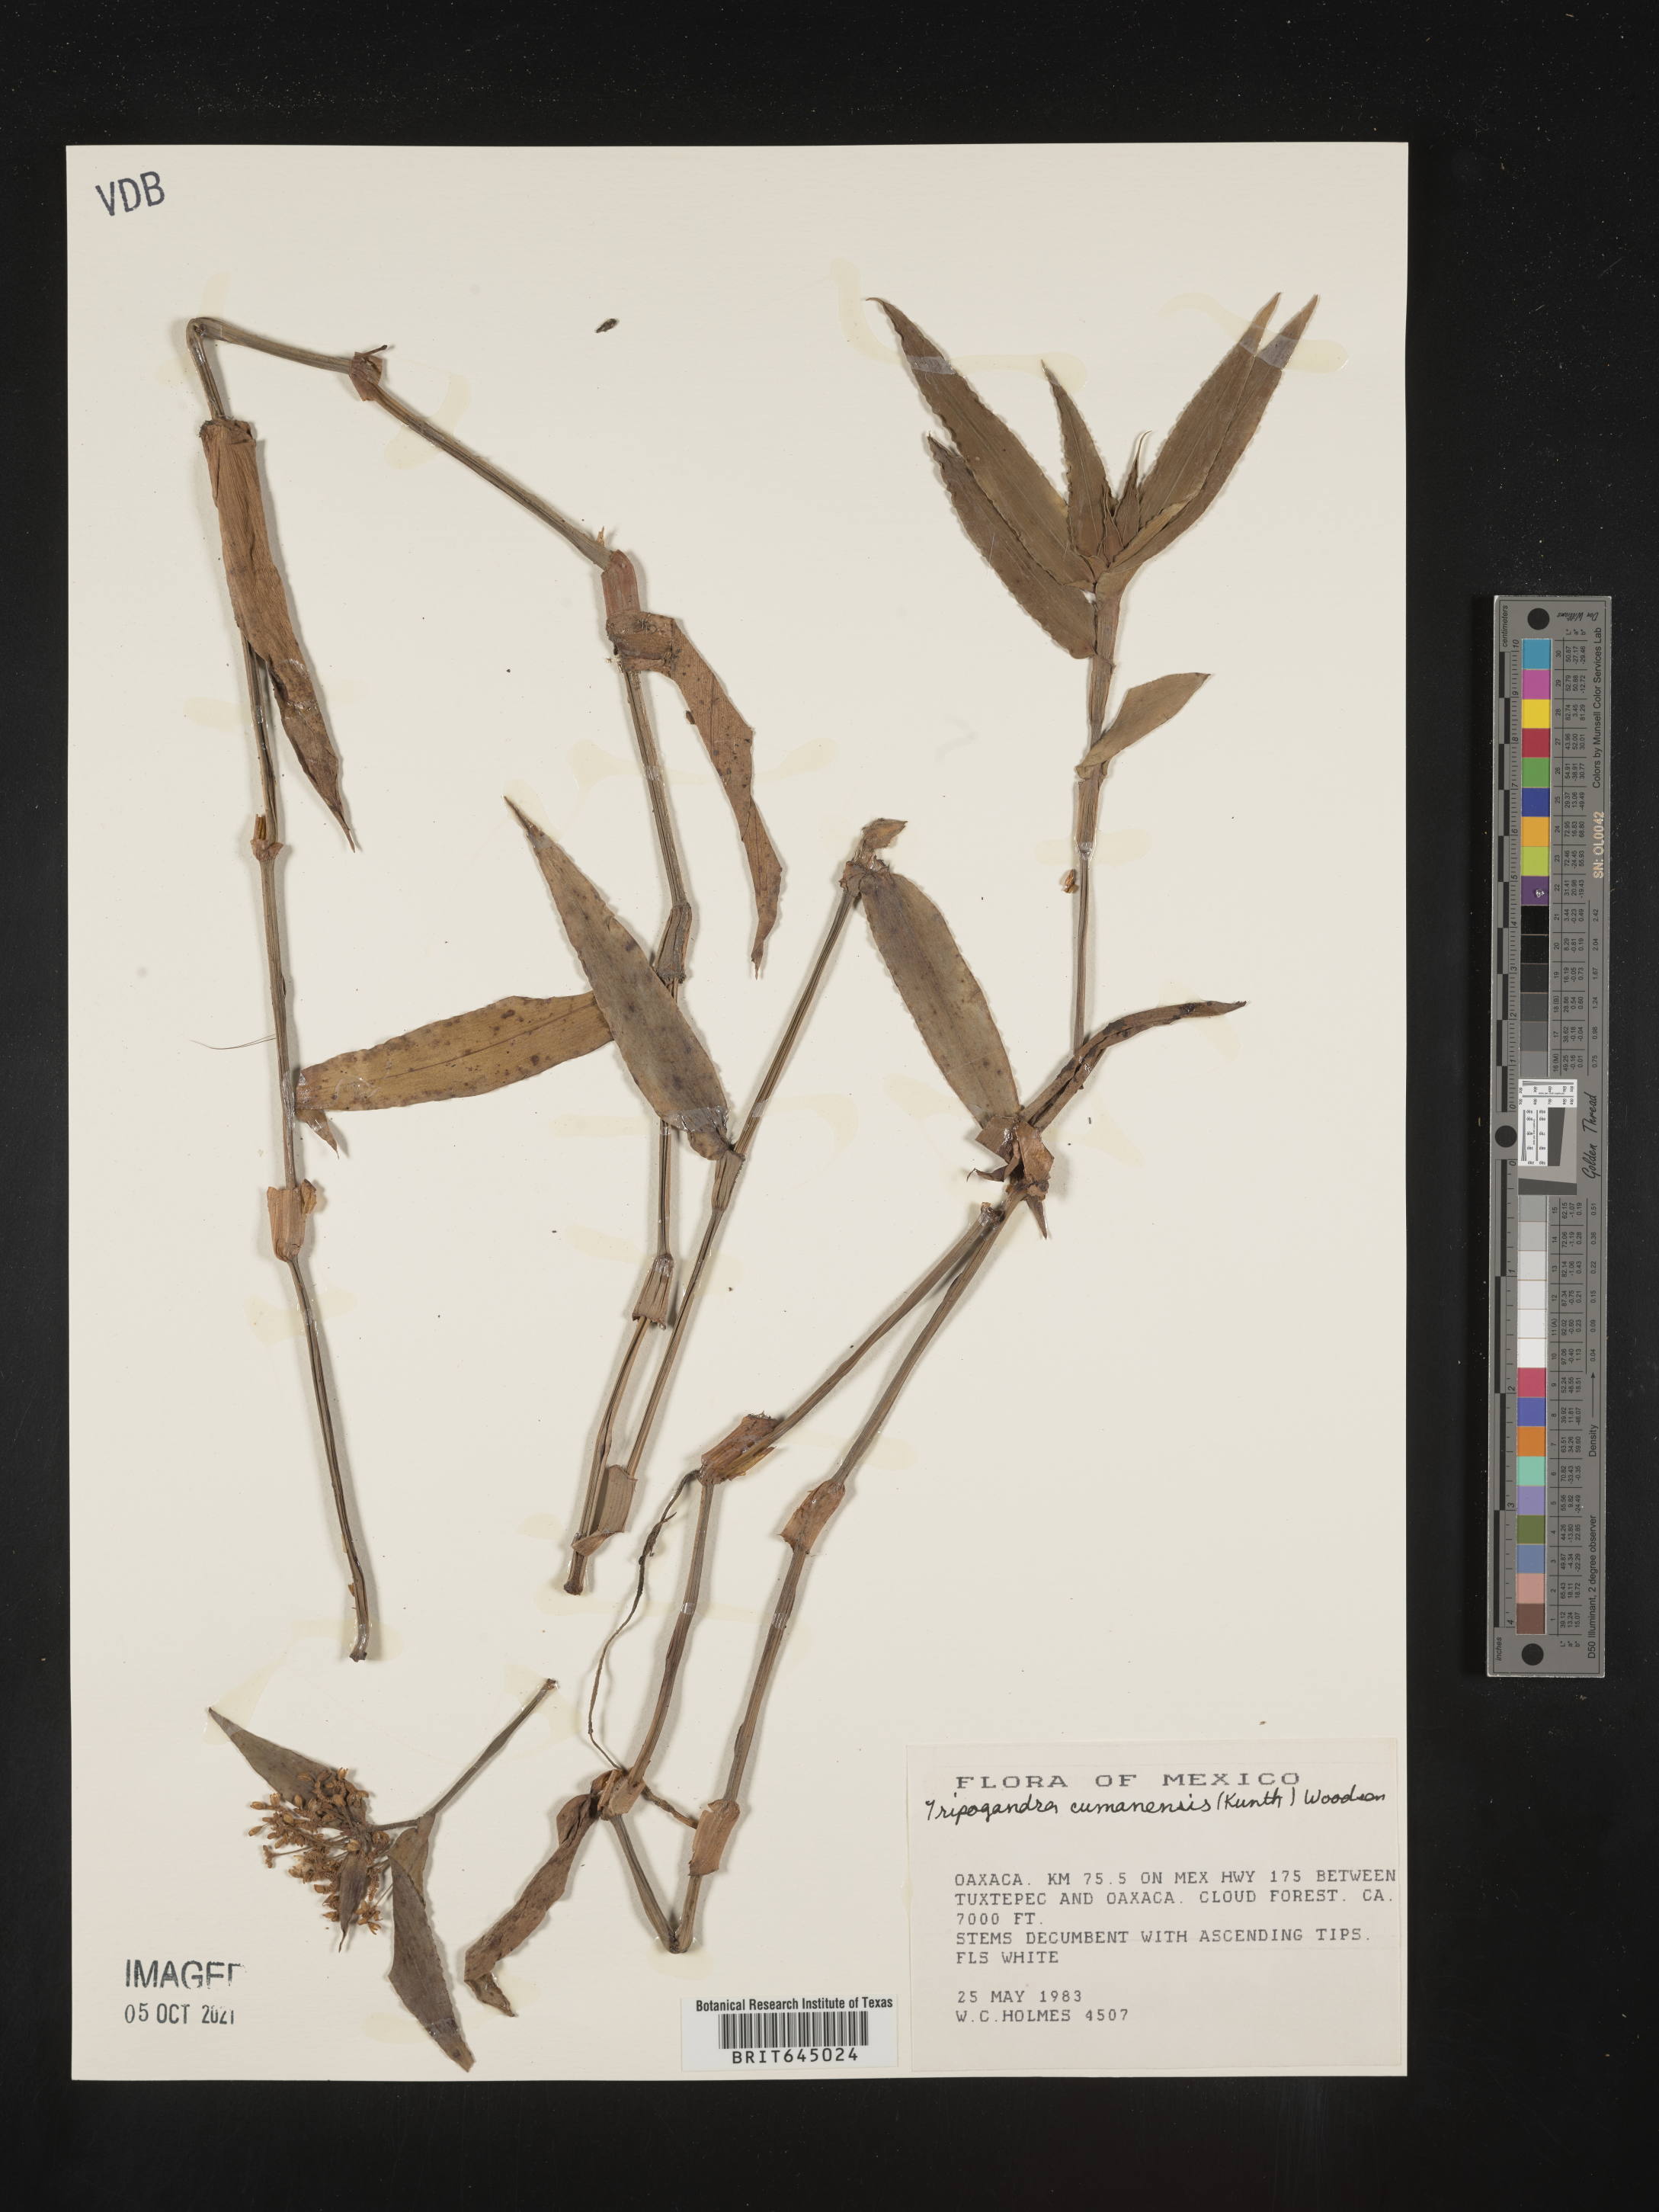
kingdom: Plantae
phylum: Tracheophyta
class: Liliopsida
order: Commelinales
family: Commelinaceae
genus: Callisia
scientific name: Callisia serrulata
